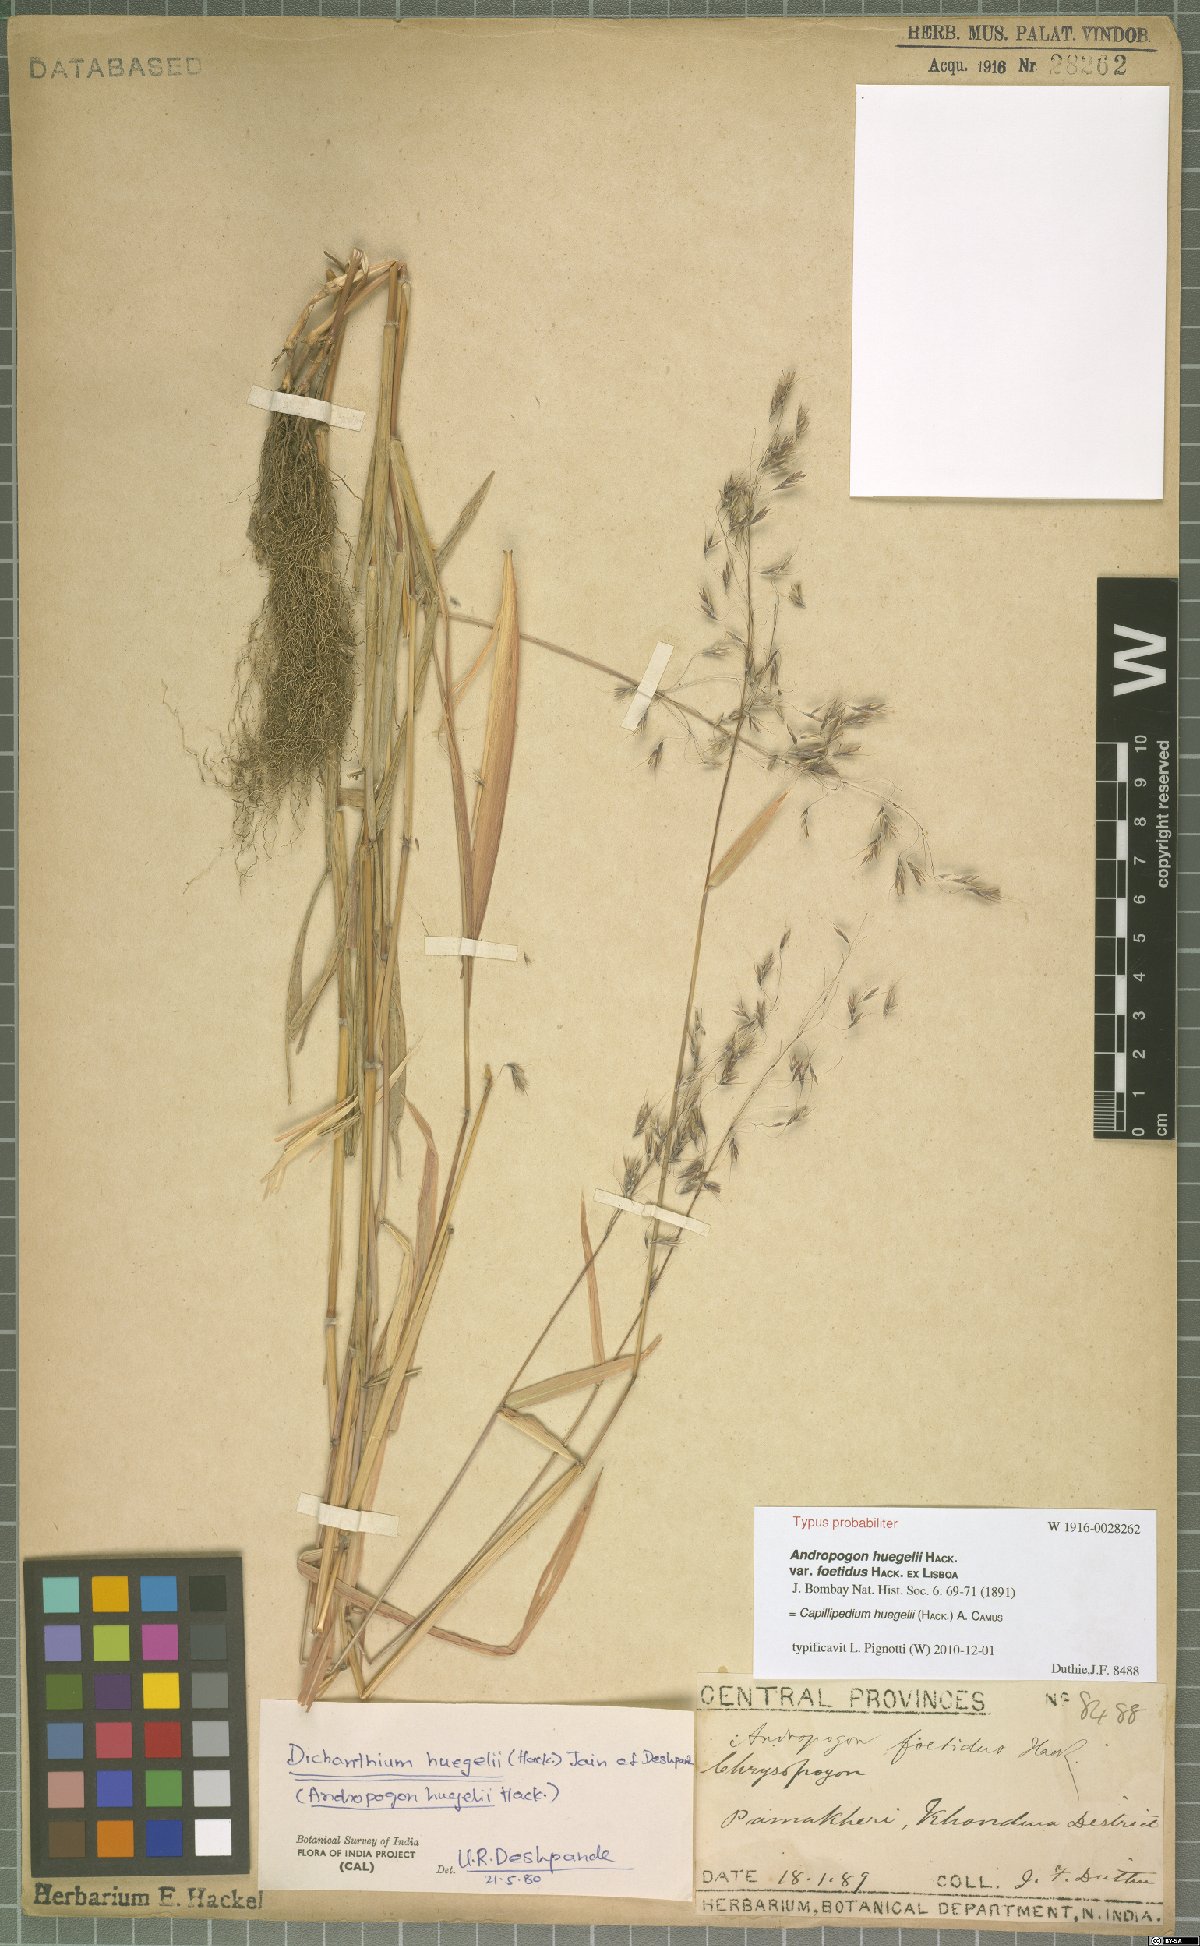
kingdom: Plantae
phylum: Tracheophyta
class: Liliopsida
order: Poales
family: Poaceae
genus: Capillipedium
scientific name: Capillipedium huegelii
